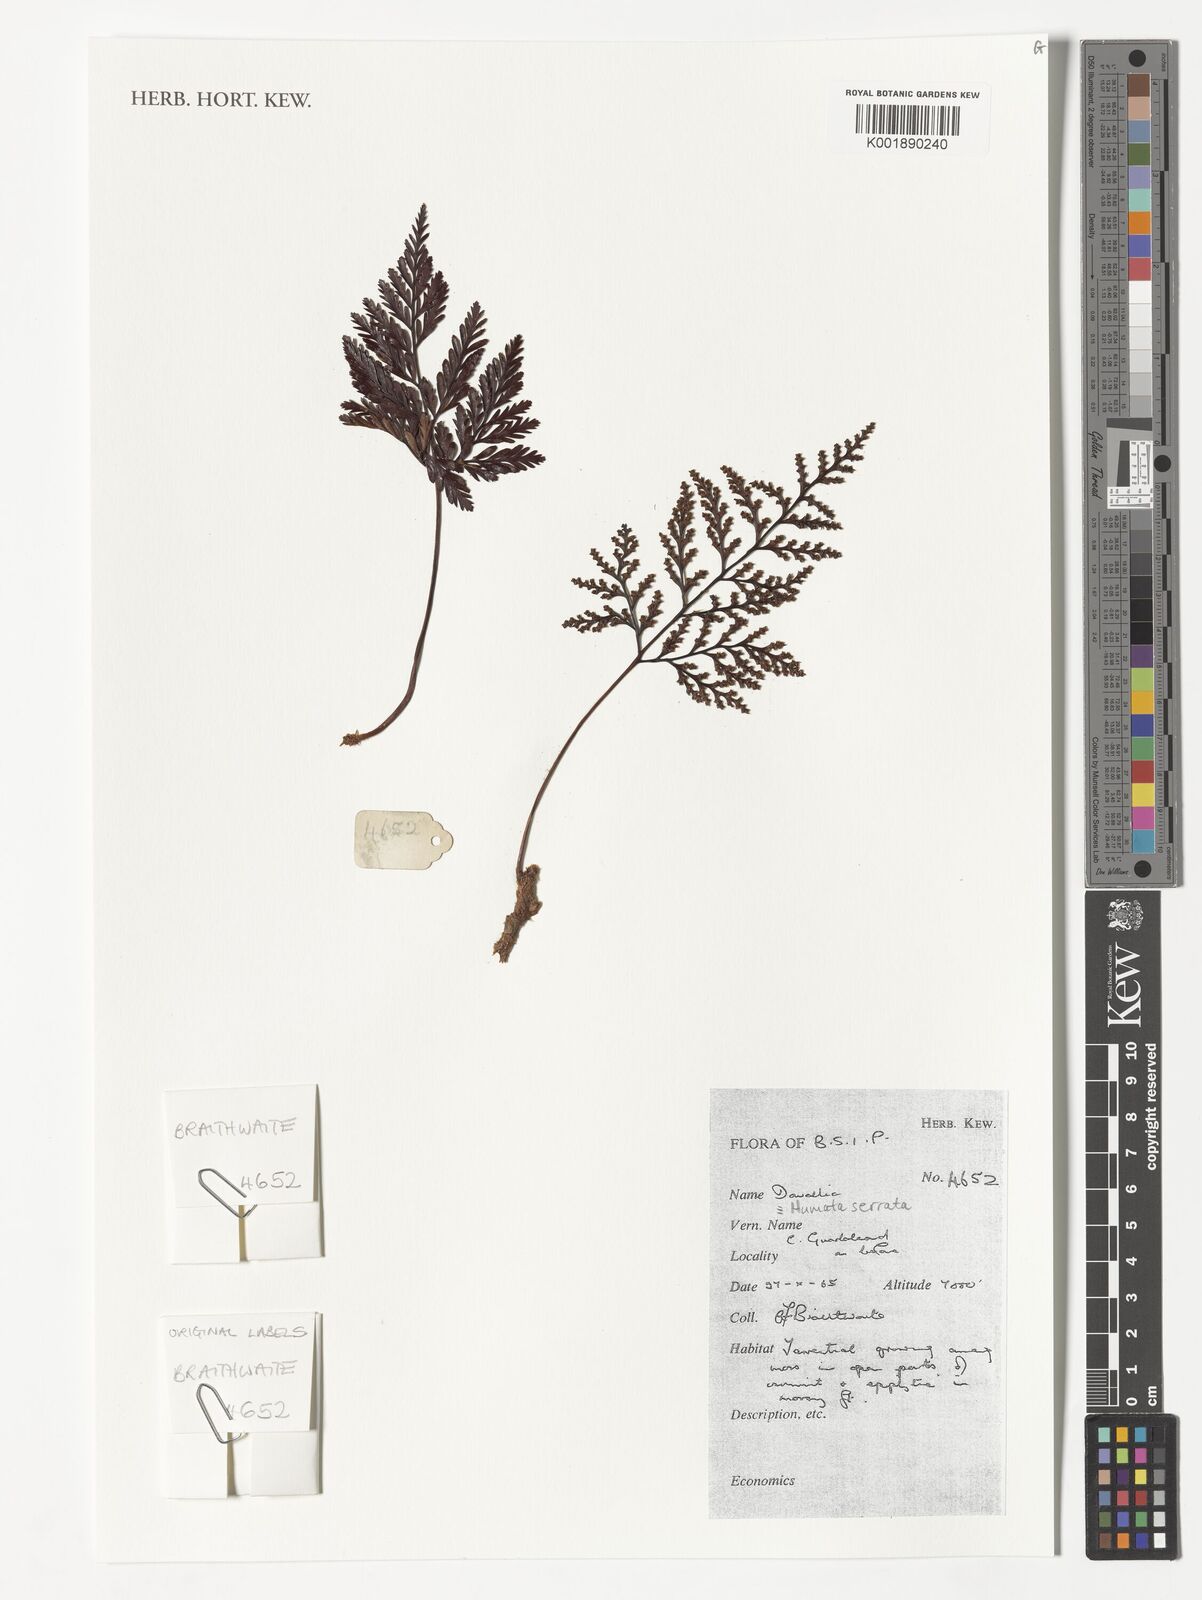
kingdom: Plantae
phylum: Tracheophyta
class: Polypodiopsida
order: Polypodiales
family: Davalliaceae
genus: Davallia
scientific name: Davallia cumingii
